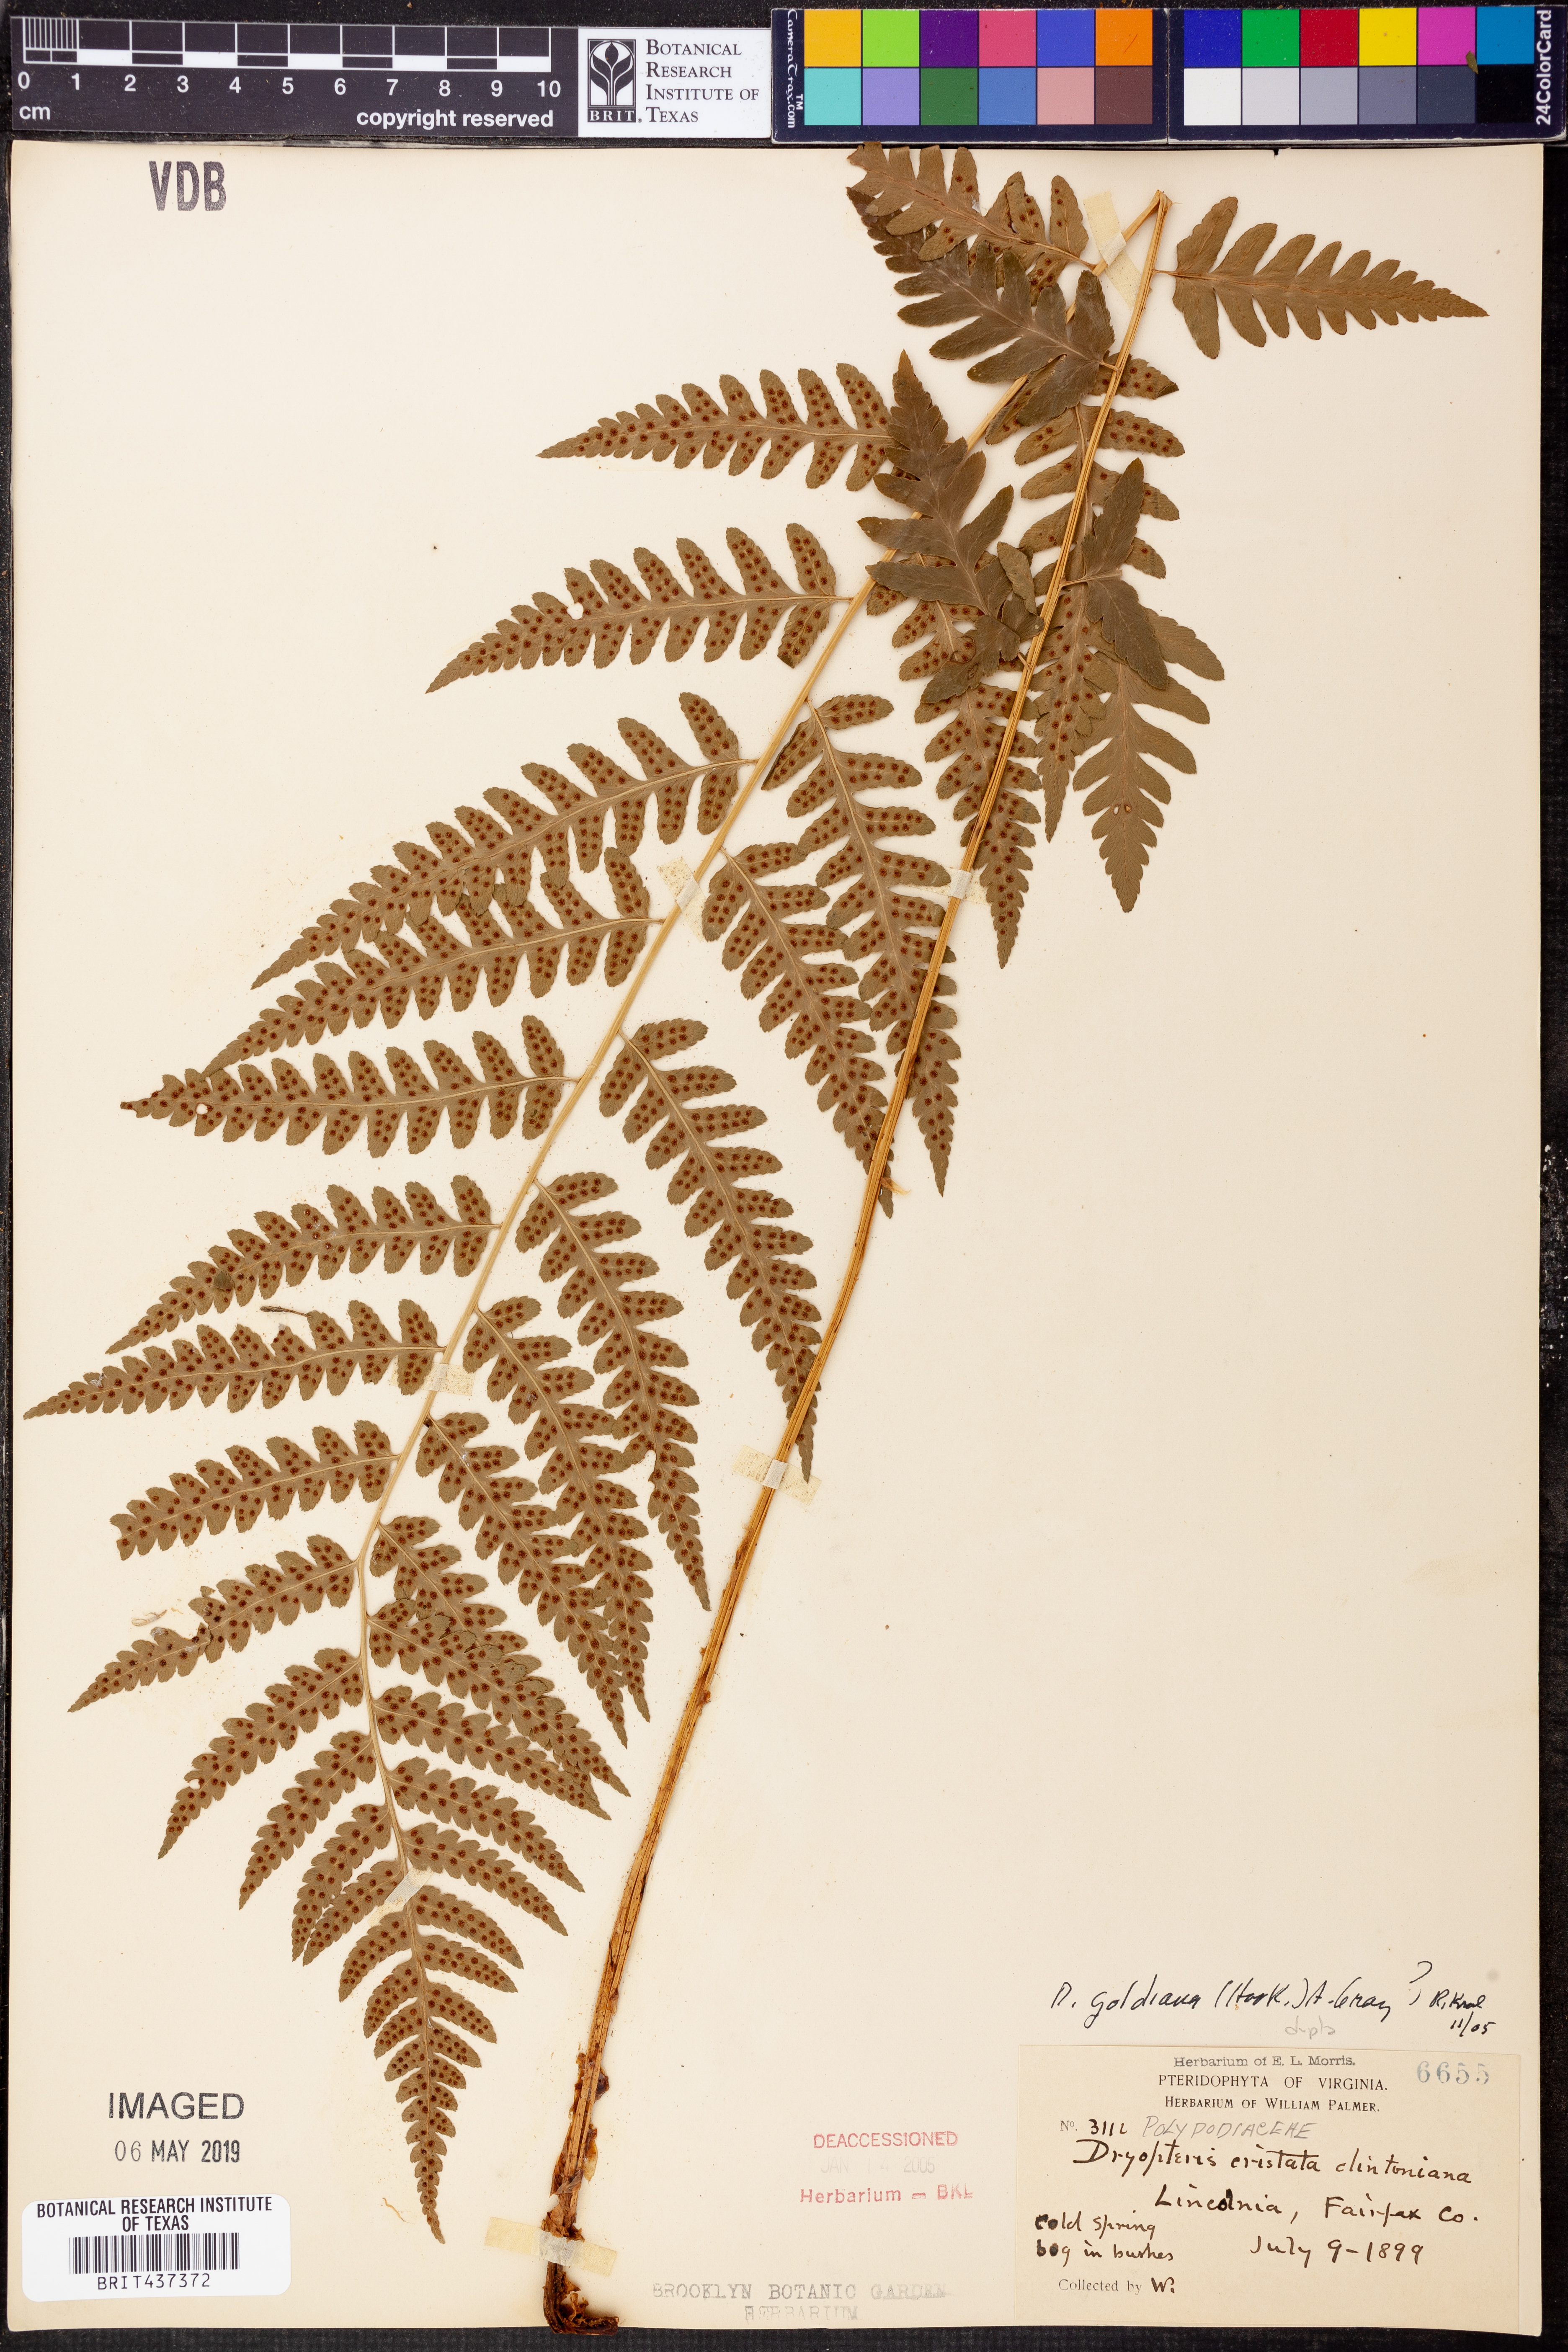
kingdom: Plantae
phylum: Tracheophyta
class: Polypodiopsida
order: Polypodiales
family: Dryopteridaceae
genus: Dryopteris
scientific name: Dryopteris goeldiana
